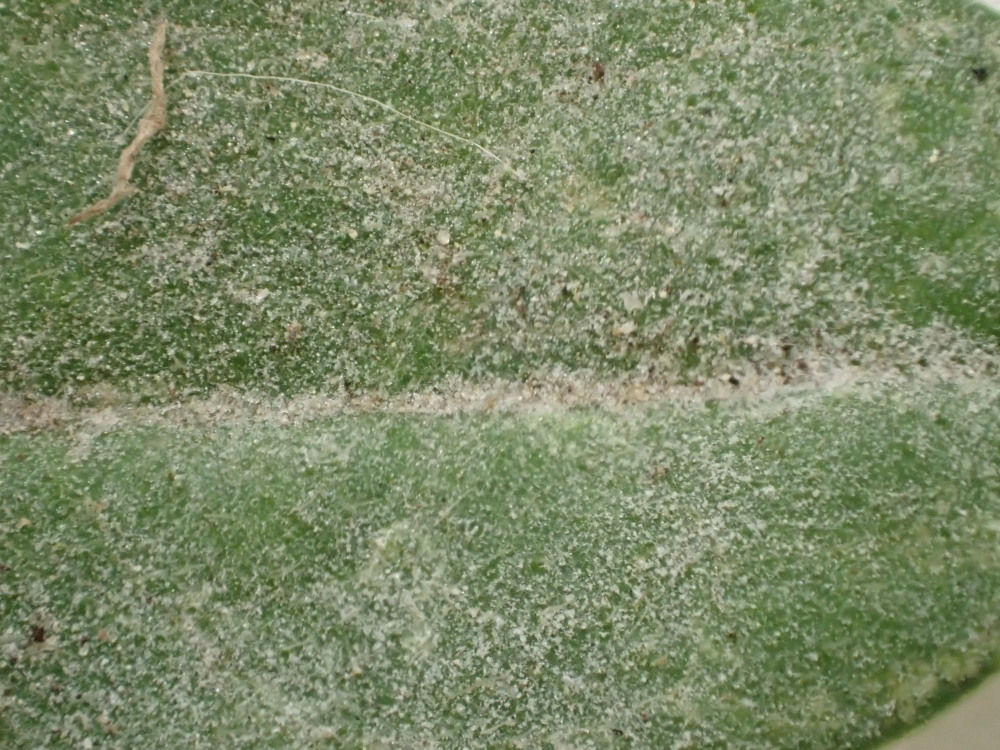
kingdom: Fungi
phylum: Ascomycota
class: Leotiomycetes
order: Helotiales
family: Erysiphaceae
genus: Erysiphe
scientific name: Erysiphe knautiae
